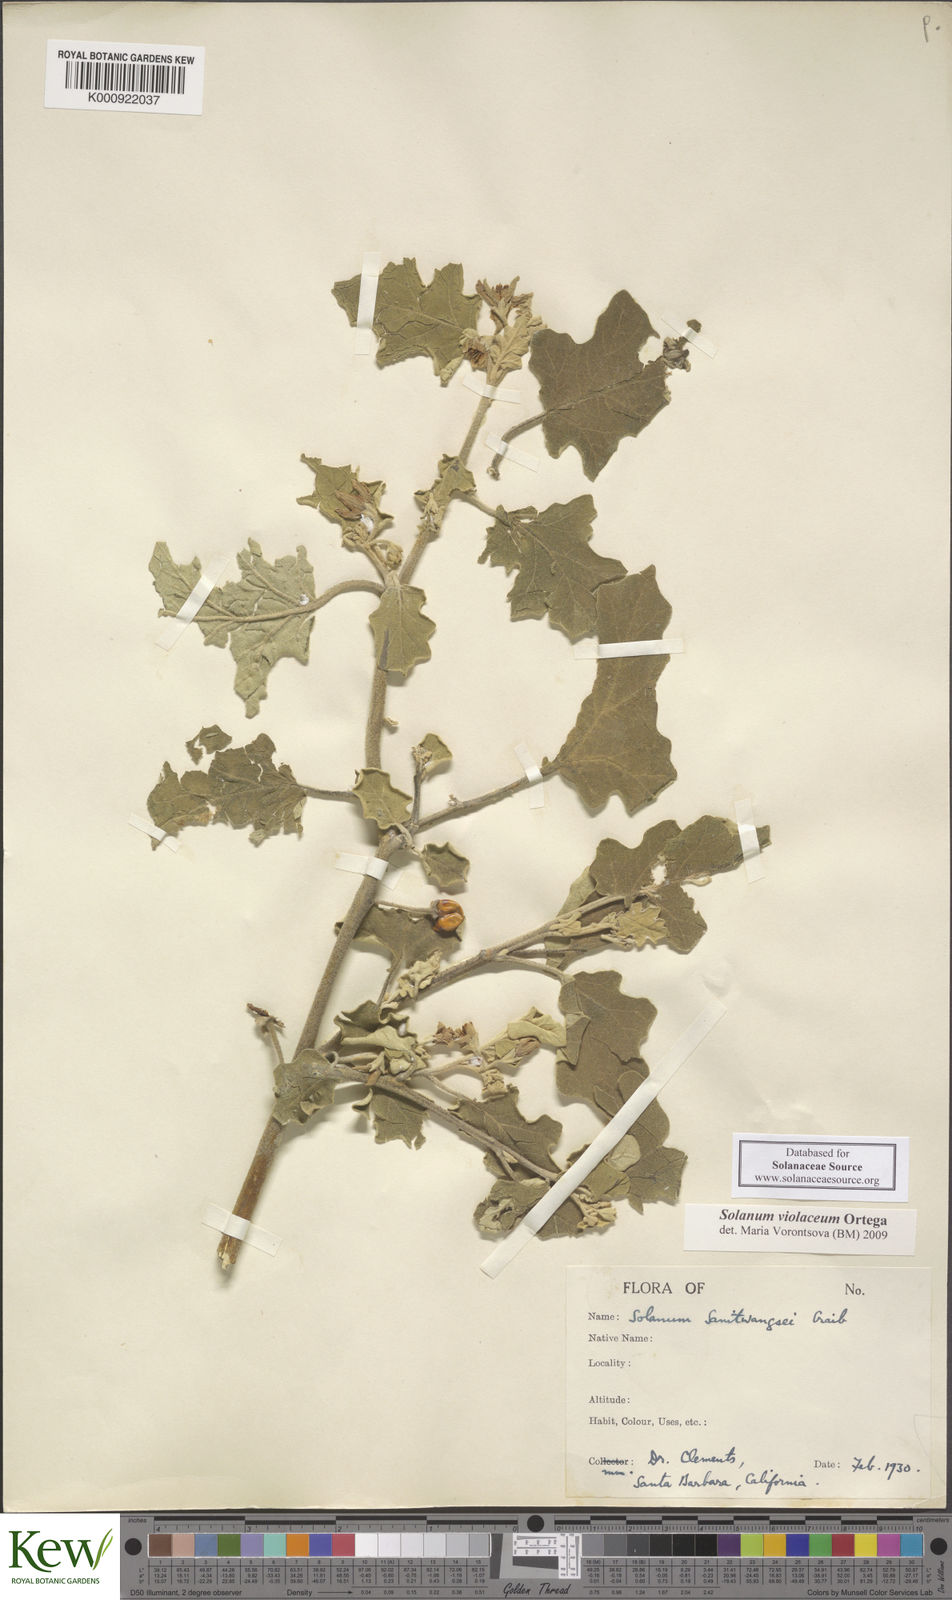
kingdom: Plantae
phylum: Tracheophyta
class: Magnoliopsida
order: Solanales
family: Solanaceae
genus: Solanum
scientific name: Solanum violaceum
